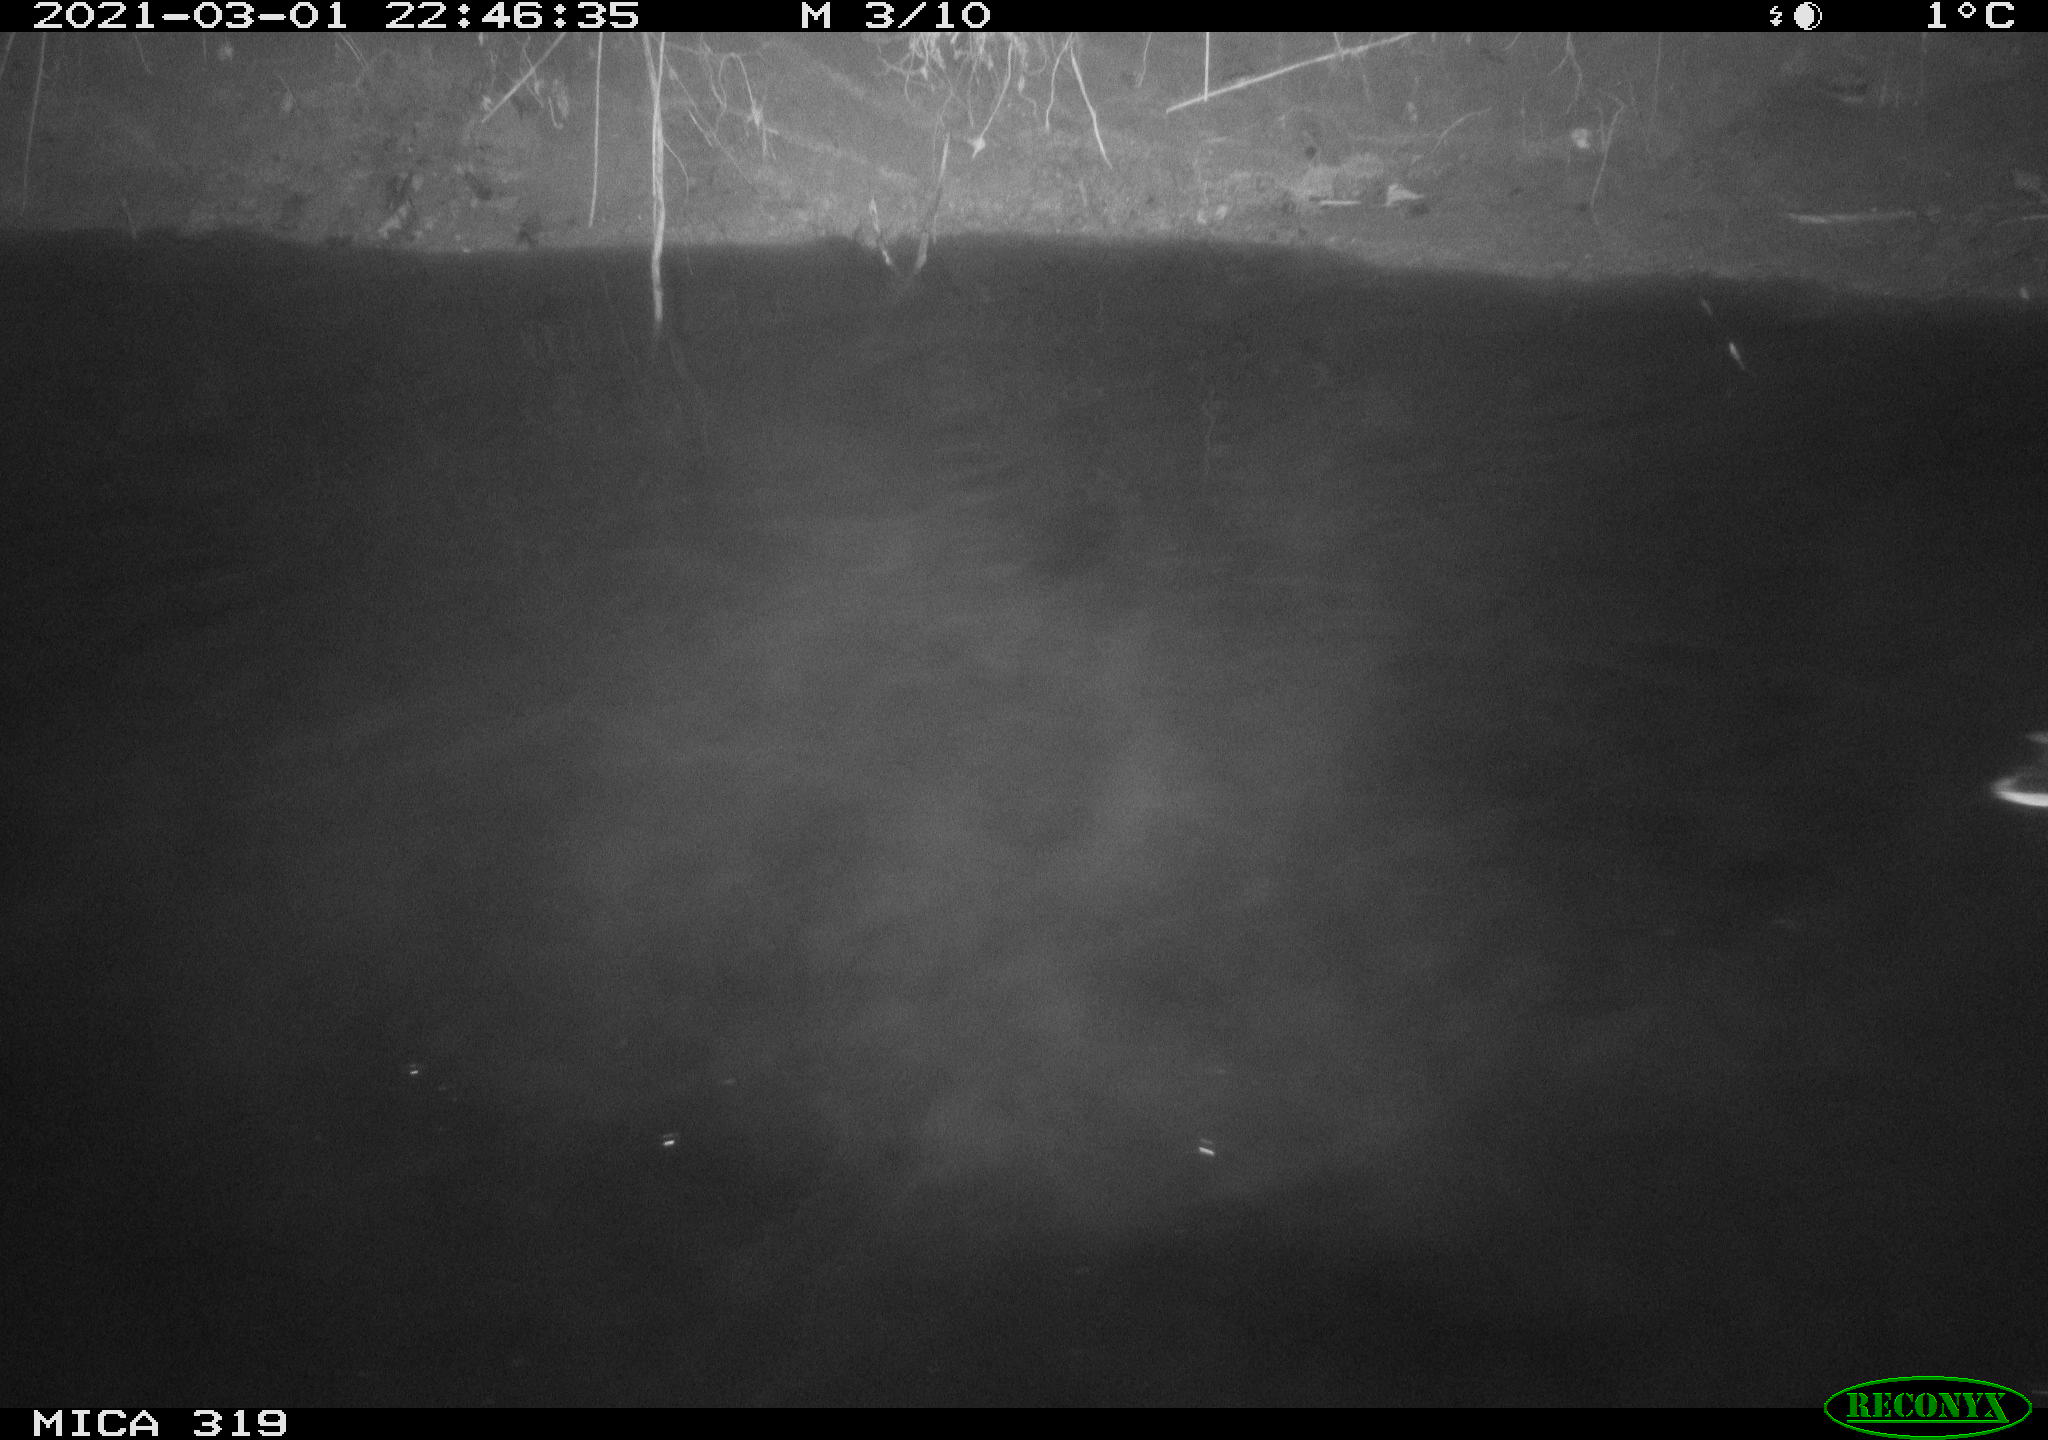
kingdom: Animalia
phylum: Chordata
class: Aves
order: Anseriformes
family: Anatidae
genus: Anas
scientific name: Anas platyrhynchos
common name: Mallard
